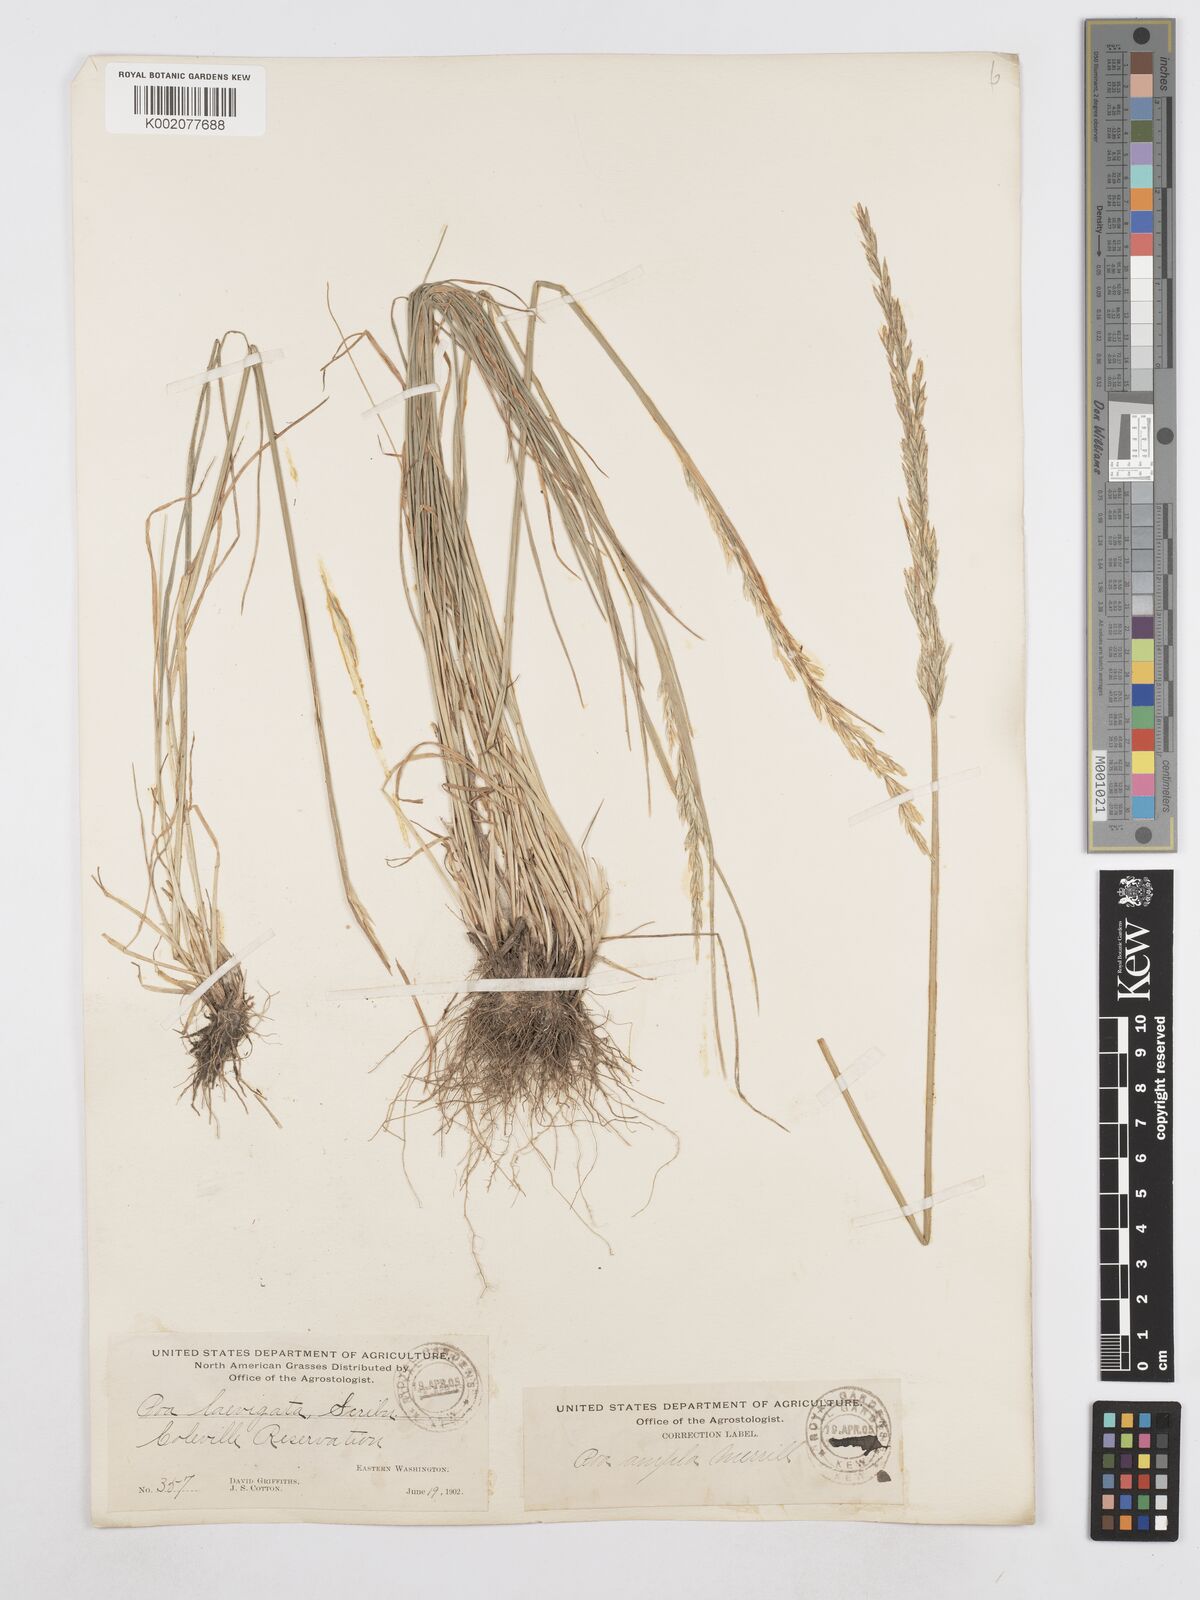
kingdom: Plantae
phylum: Tracheophyta
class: Liliopsida
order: Poales
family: Poaceae
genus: Poa
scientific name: Poa secunda
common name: Sandberg bluegrass
